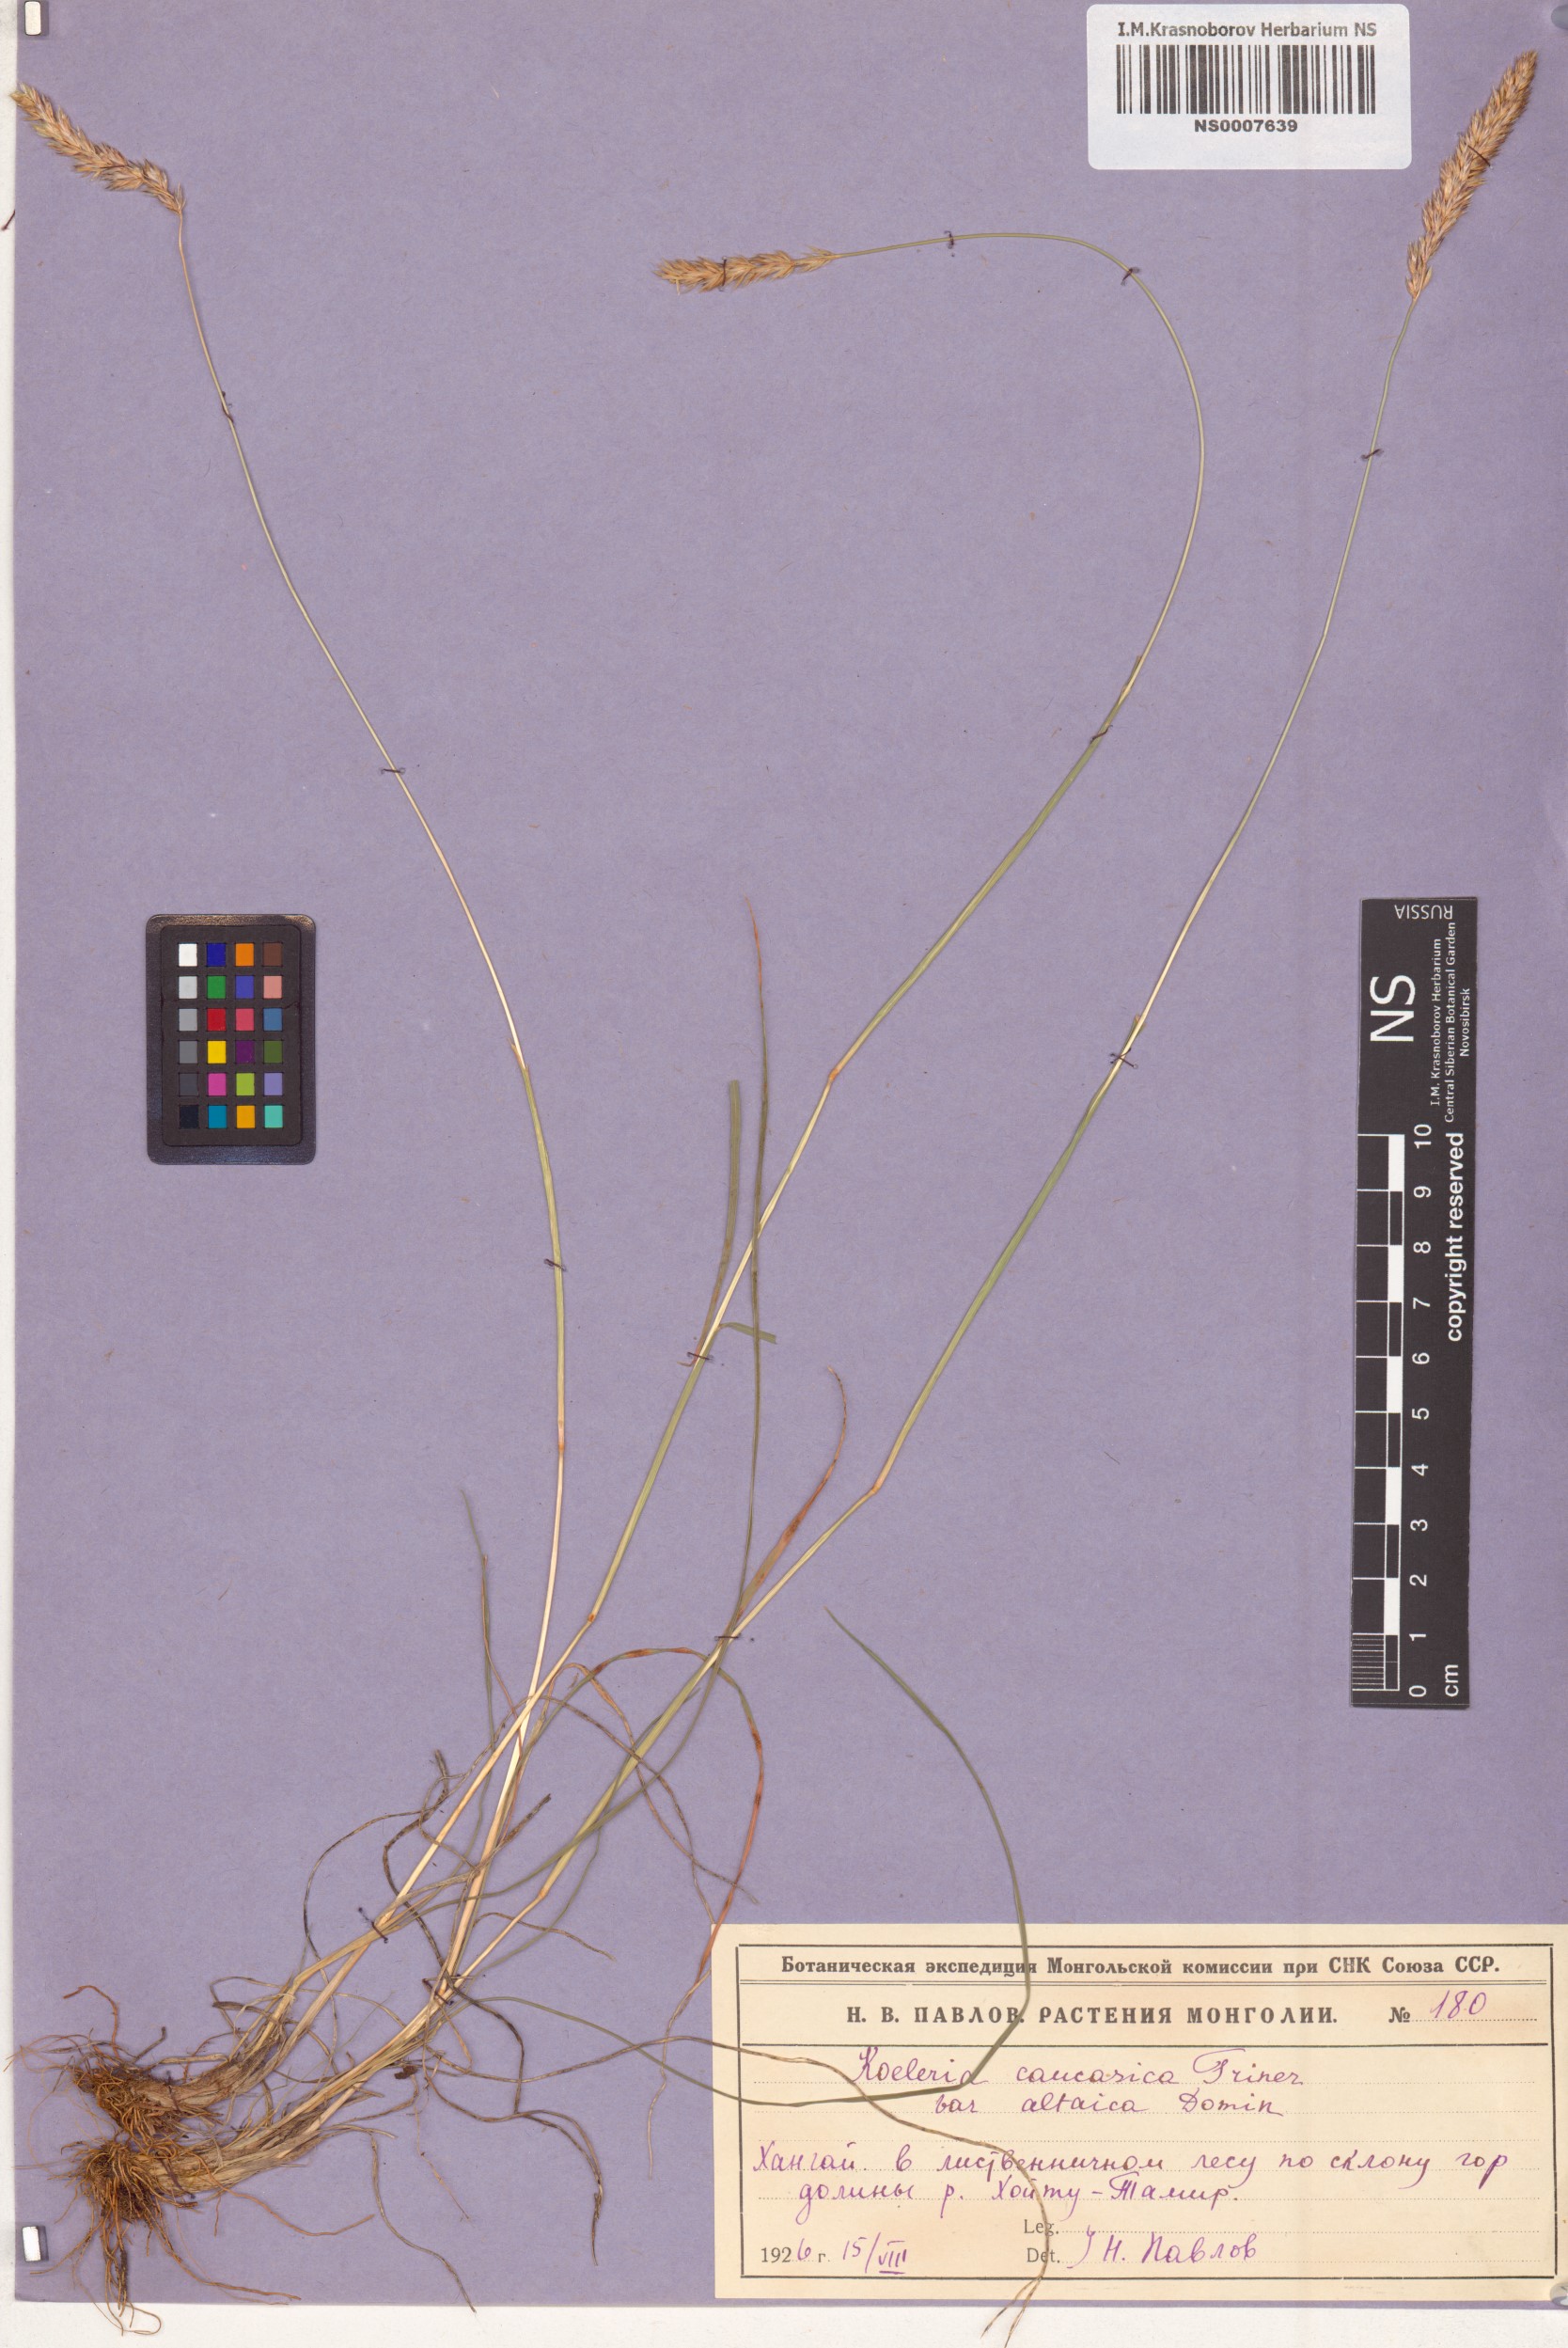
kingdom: Plantae
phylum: Tracheophyta
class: Liliopsida
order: Poales
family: Poaceae
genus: Koeleria
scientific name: Koeleria eriostachya
